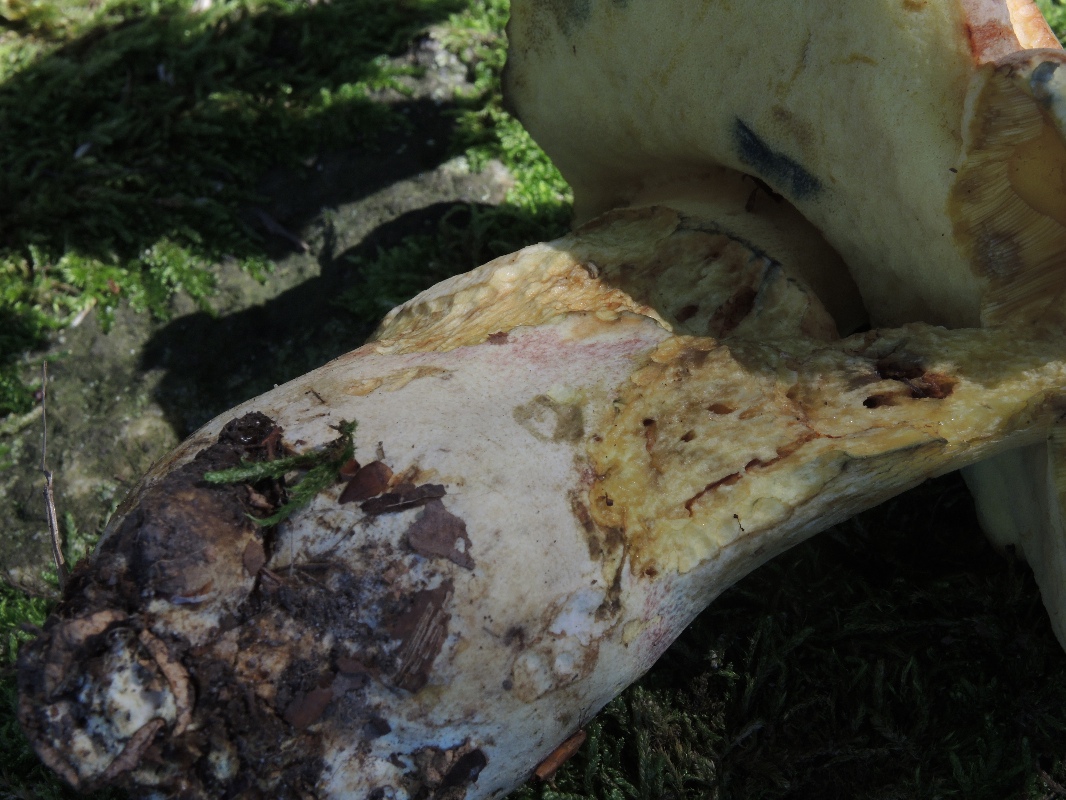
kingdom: Fungi
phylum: Basidiomycota
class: Agaricomycetes
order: Boletales
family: Boletaceae
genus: Butyriboletus
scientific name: Butyriboletus fechtneri
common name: sølvskinnende rørhat
